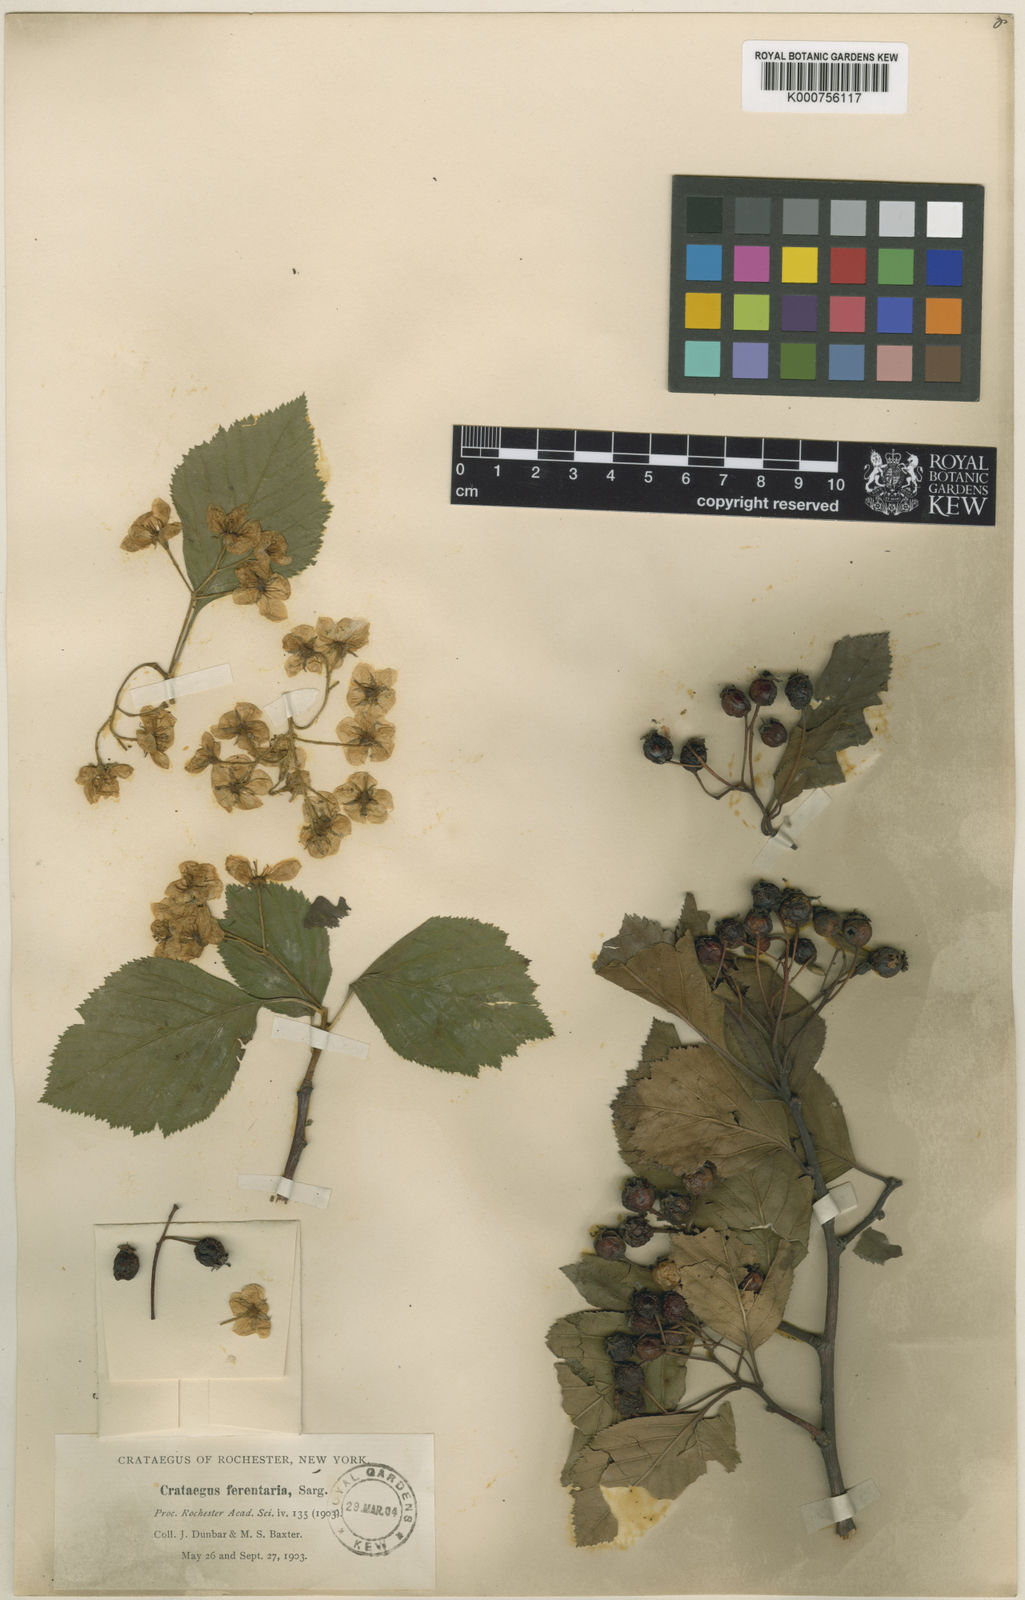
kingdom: Plantae
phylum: Tracheophyta
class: Magnoliopsida
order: Rosales
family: Rosaceae
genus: Crataegus
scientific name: Crataegus macracantha
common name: Large-thorn hawthorn
